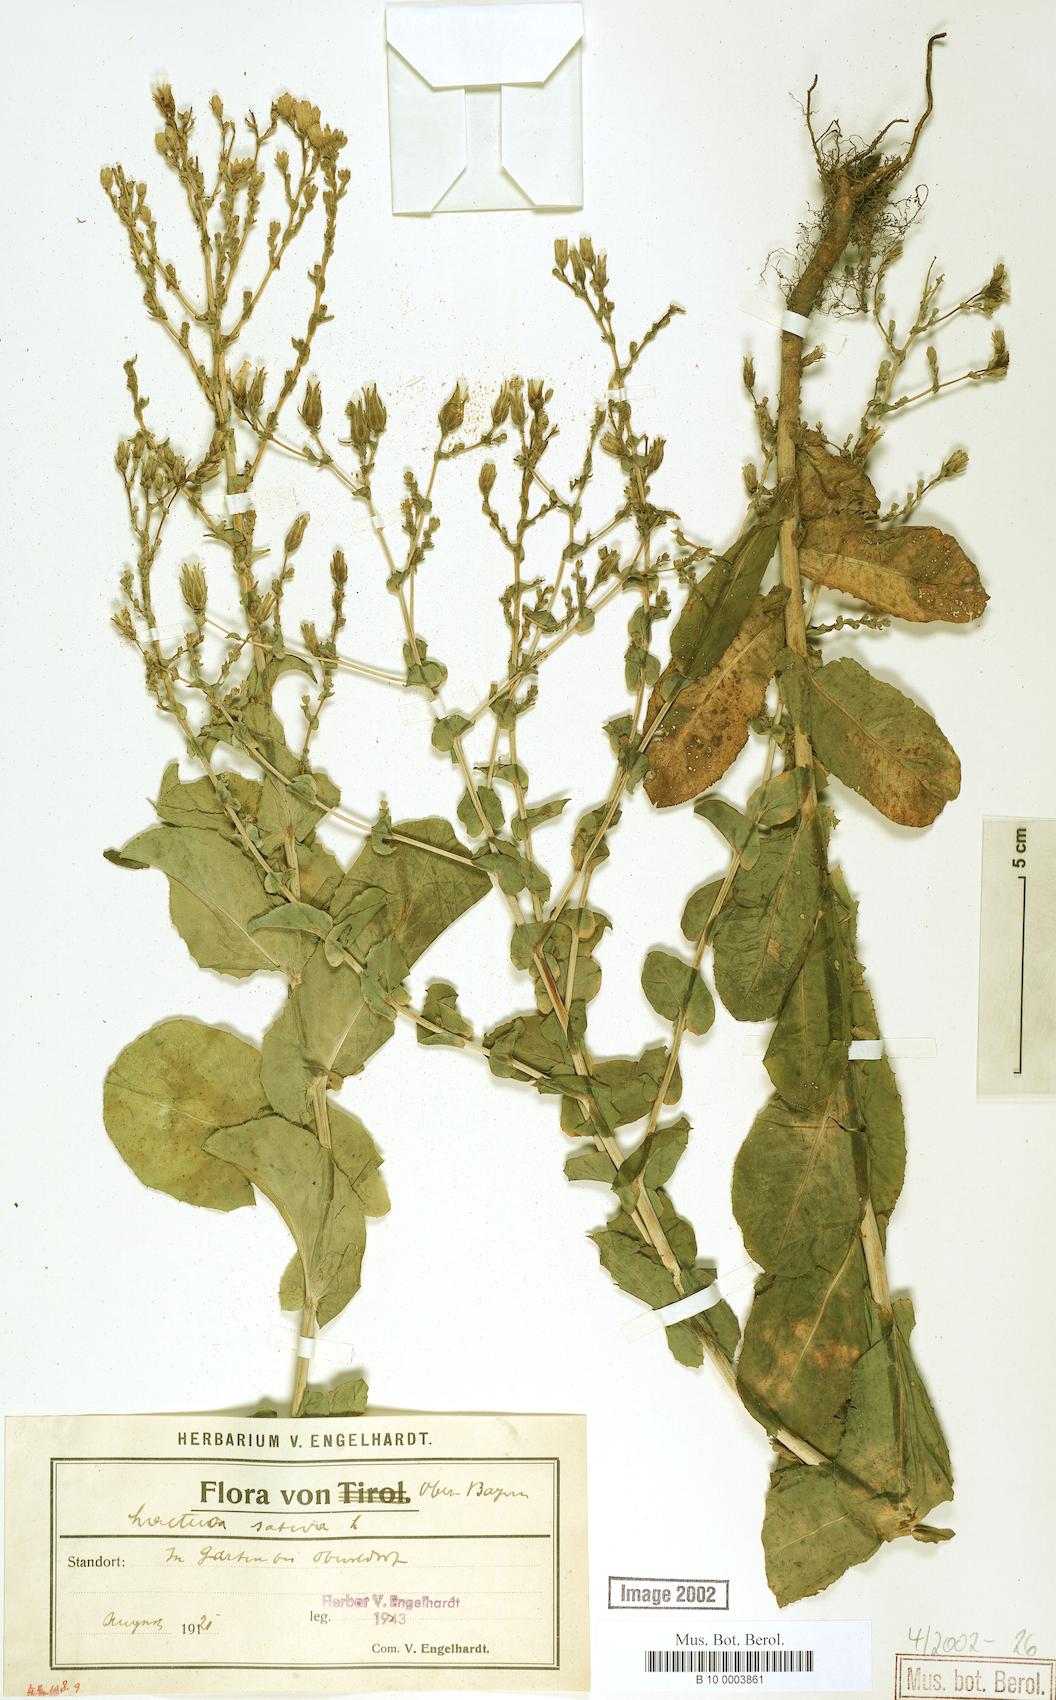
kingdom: Plantae
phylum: Tracheophyta
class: Magnoliopsida
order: Asterales
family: Asteraceae
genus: Lactuca
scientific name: Lactuca sativa
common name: Garden lettuce
